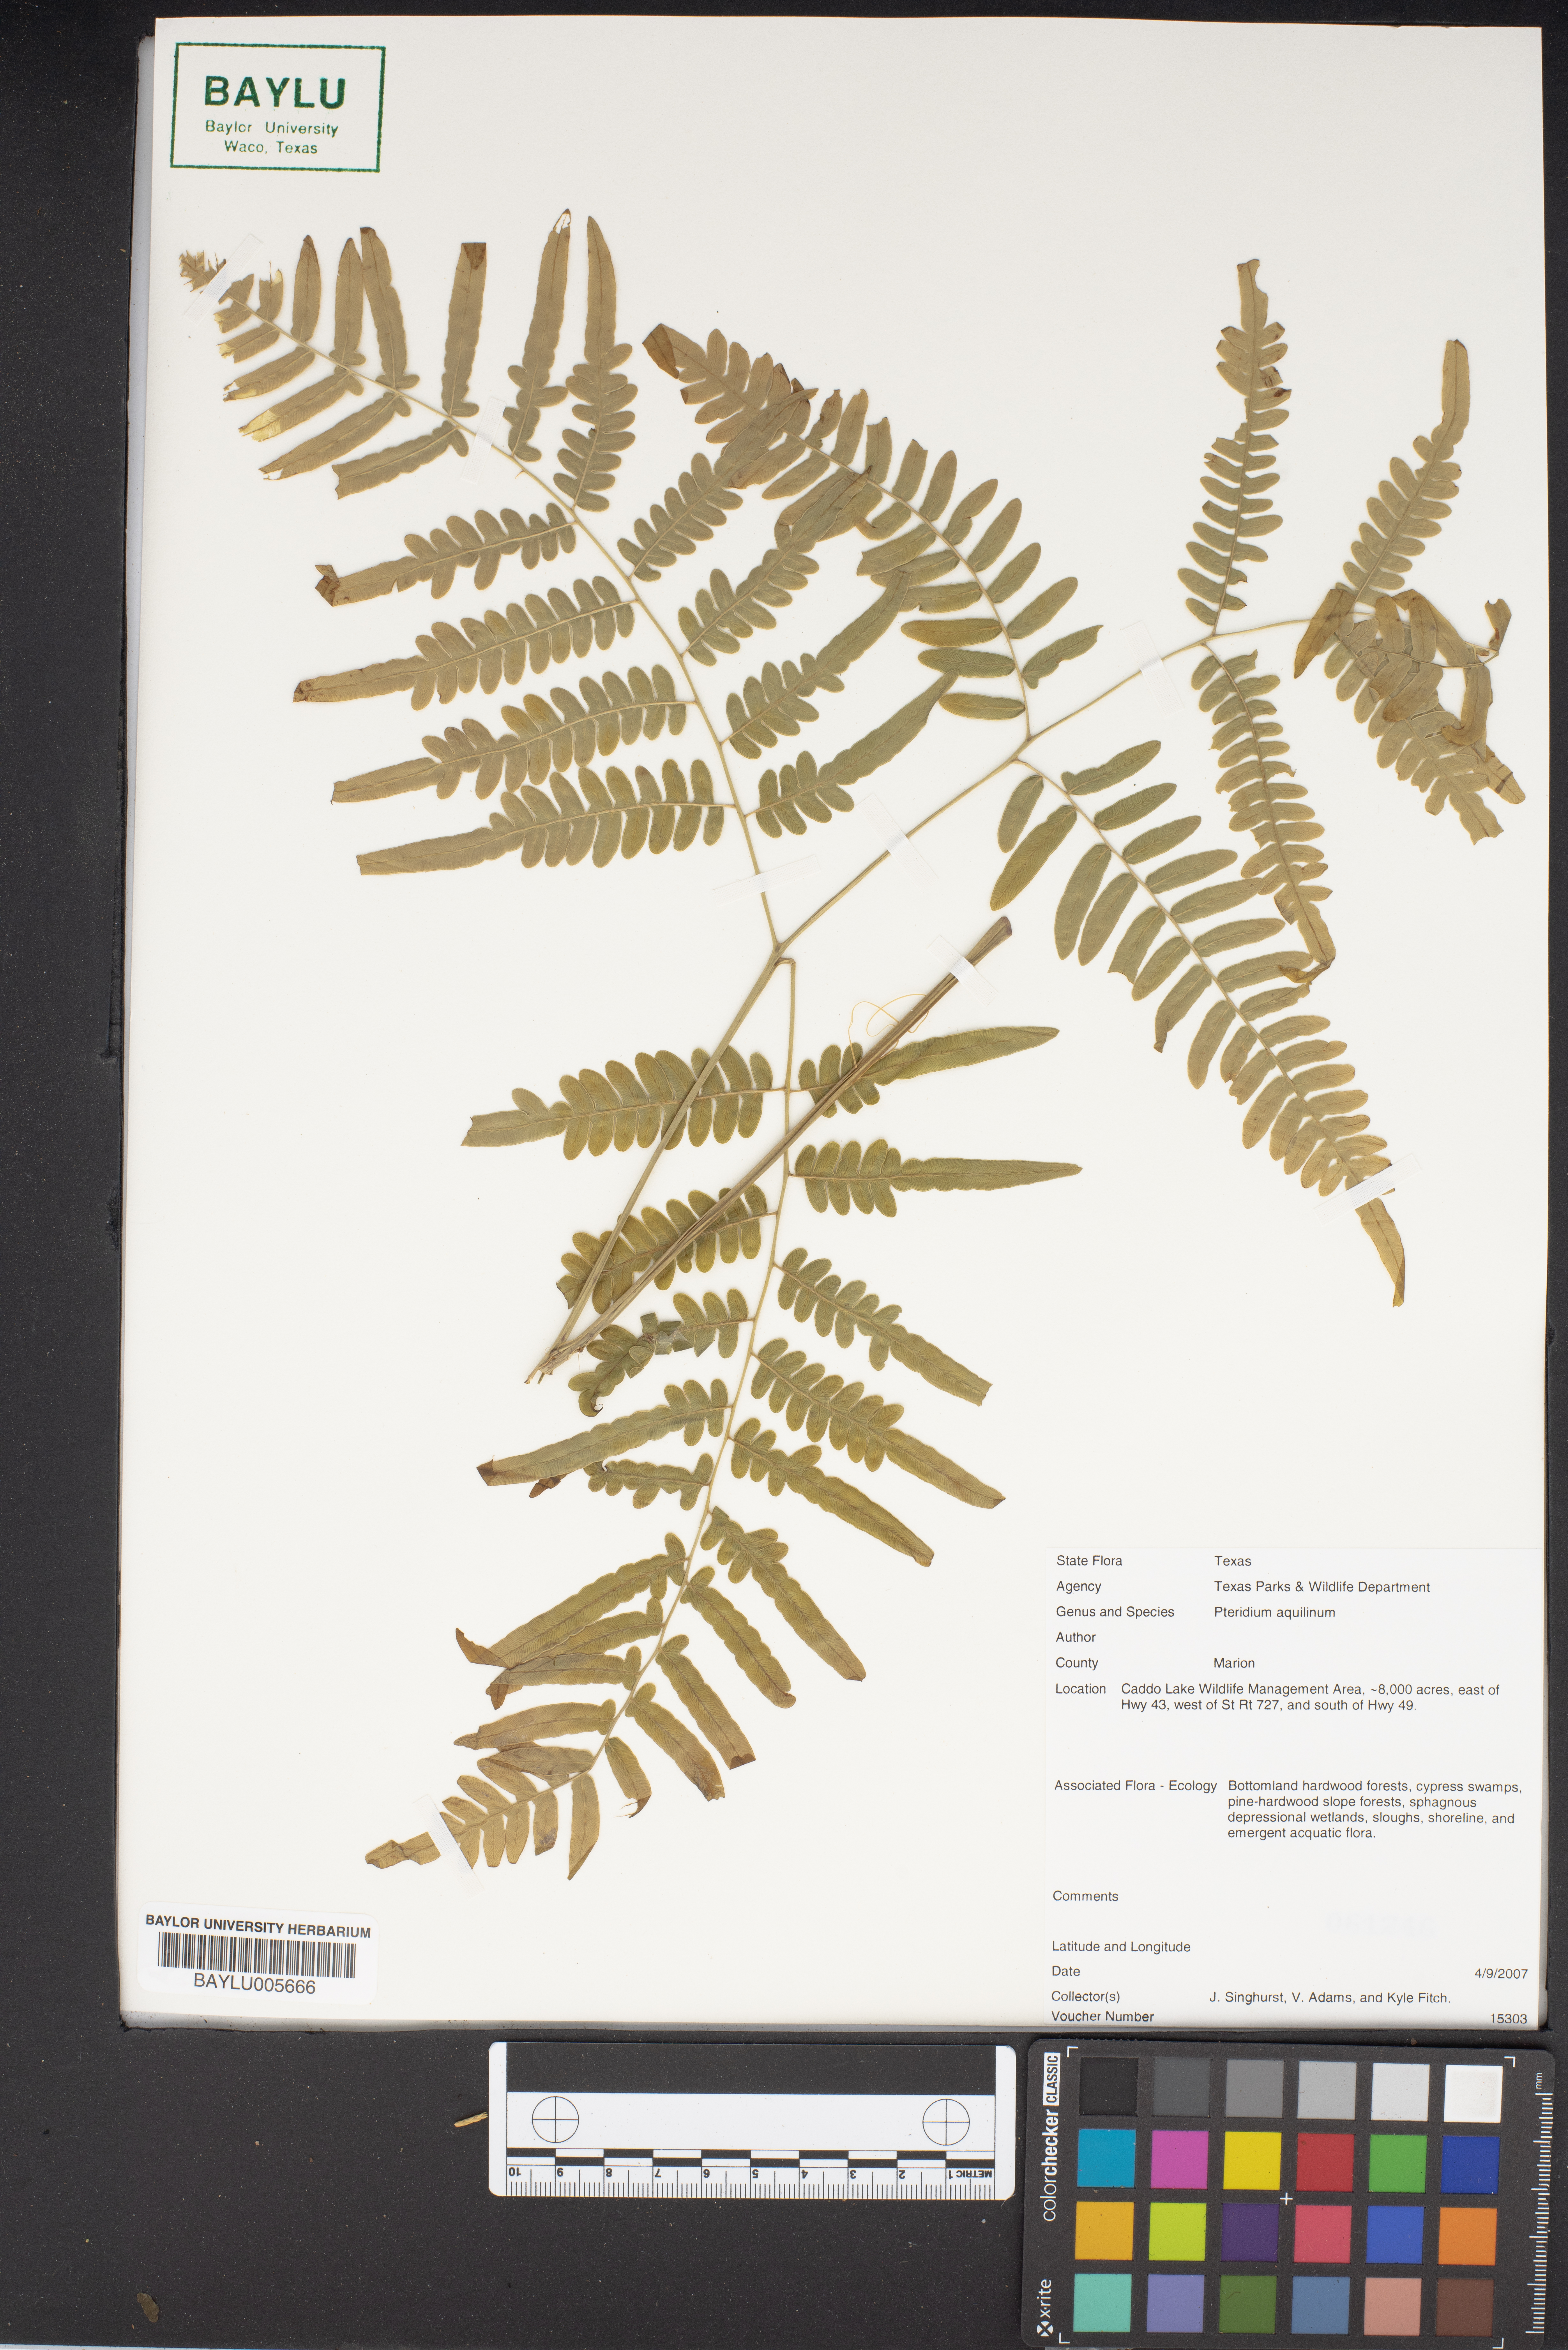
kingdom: Plantae
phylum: Tracheophyta
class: Polypodiopsida
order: Polypodiales
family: Dennstaedtiaceae
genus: Pteridium
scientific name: Pteridium aquilinum
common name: Bracken
